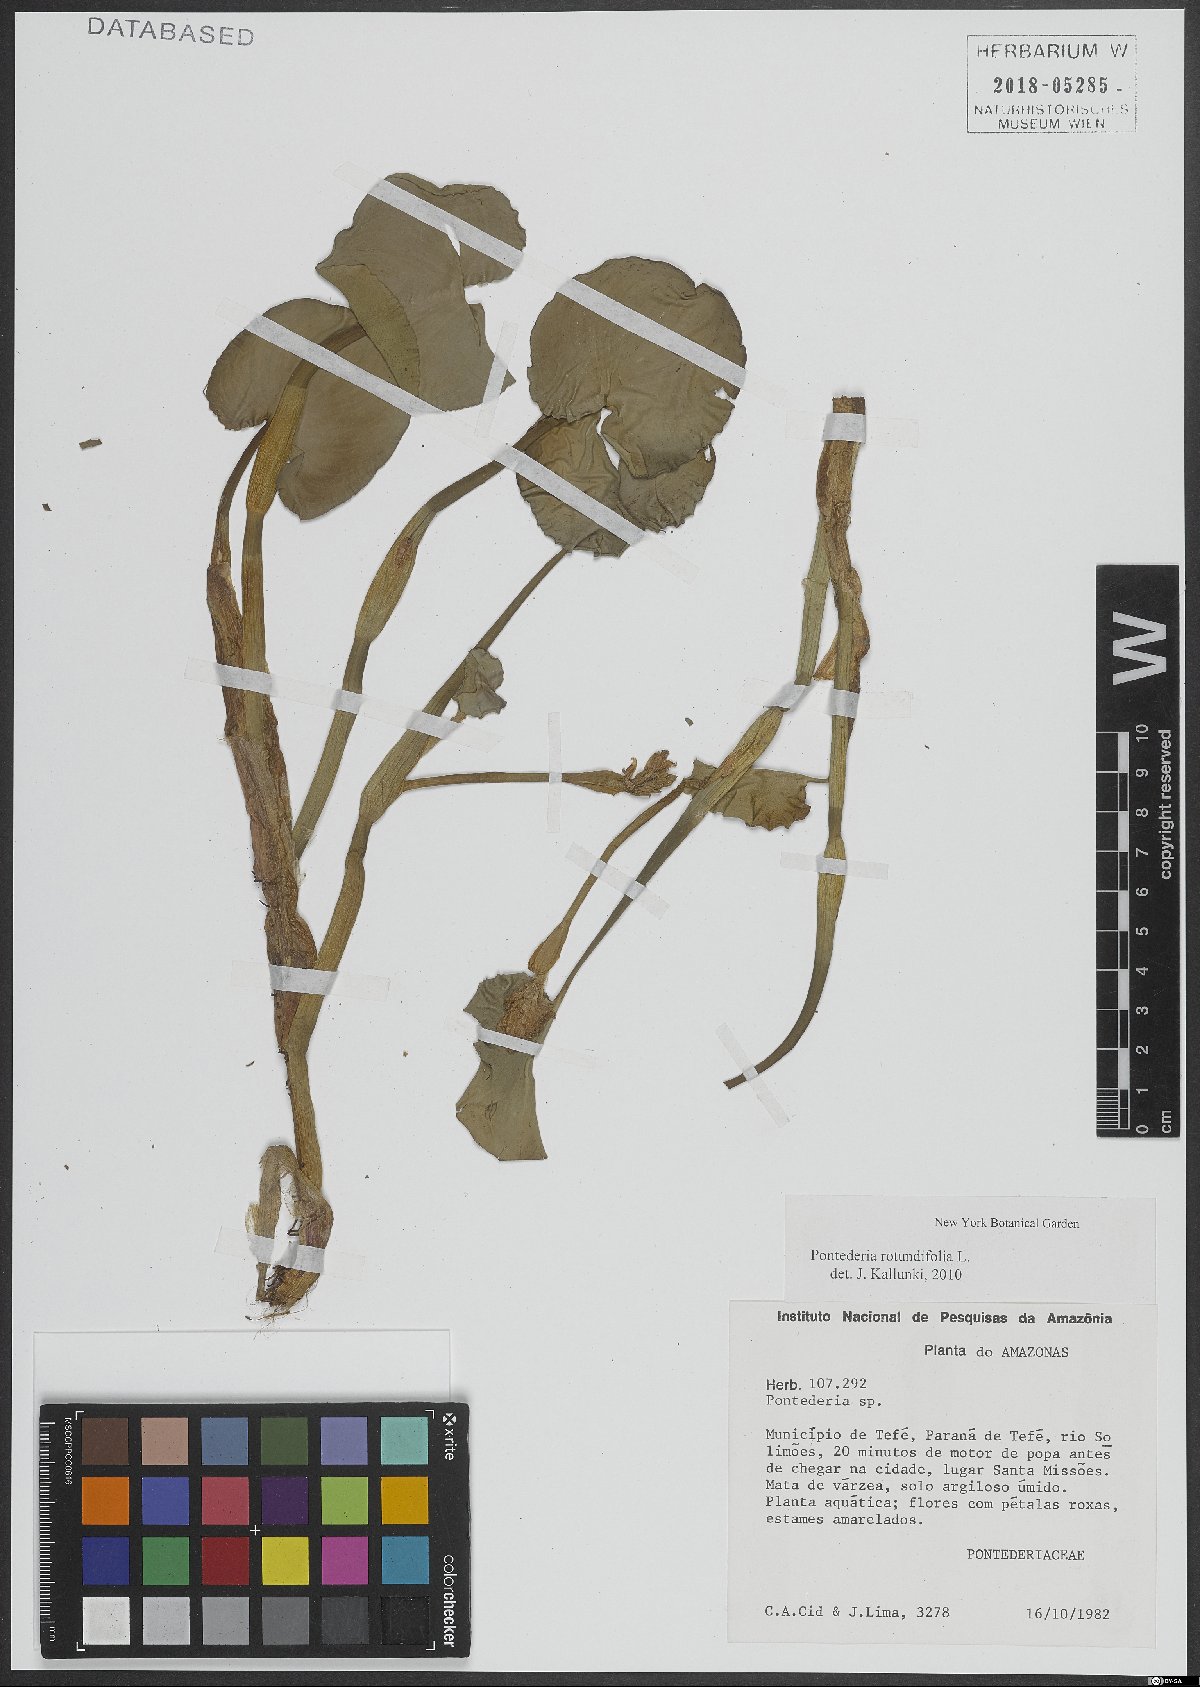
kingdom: Plantae
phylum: Tracheophyta
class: Liliopsida
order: Commelinales
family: Pontederiaceae
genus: Pontederia
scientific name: Pontederia rotundifolia
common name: Tropical pickerel-weed
